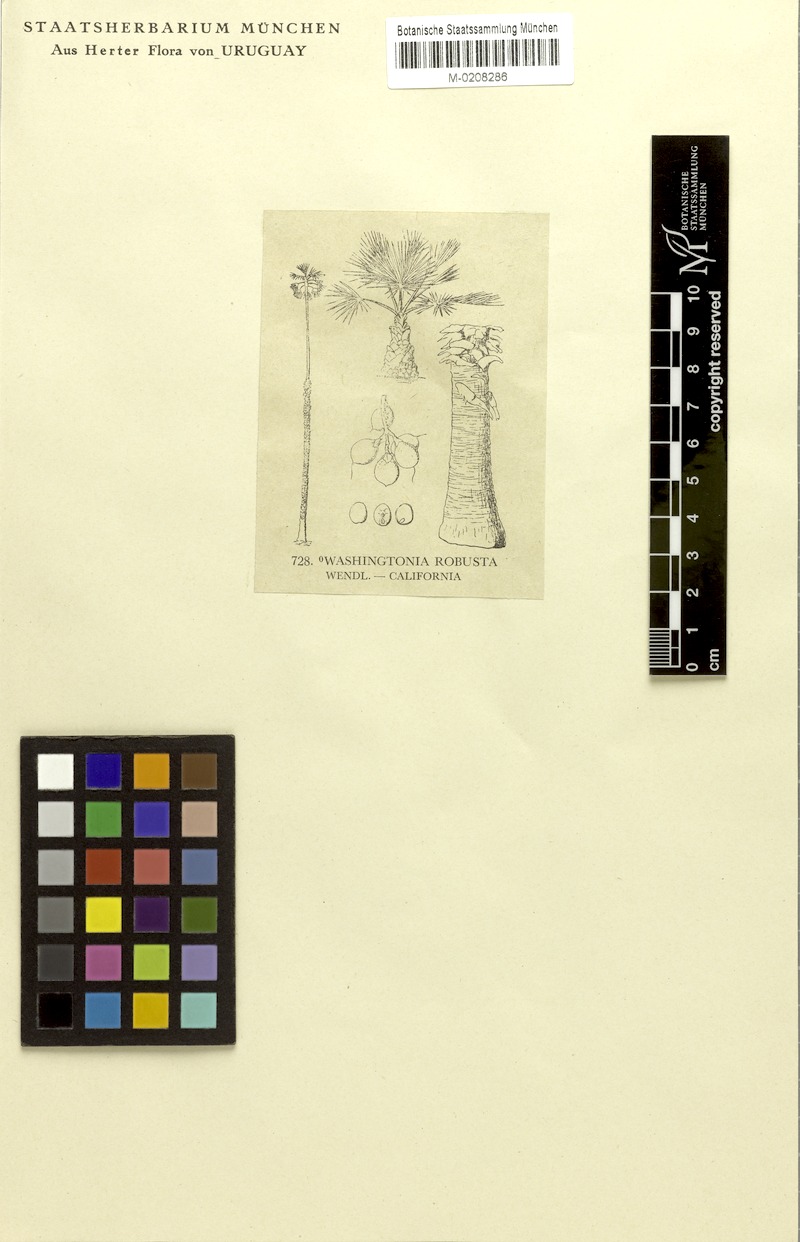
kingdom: Plantae
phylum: Tracheophyta
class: Liliopsida
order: Arecales
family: Arecaceae
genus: Washingtonia
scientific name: Washingtonia robusta
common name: Mexican fan palm
